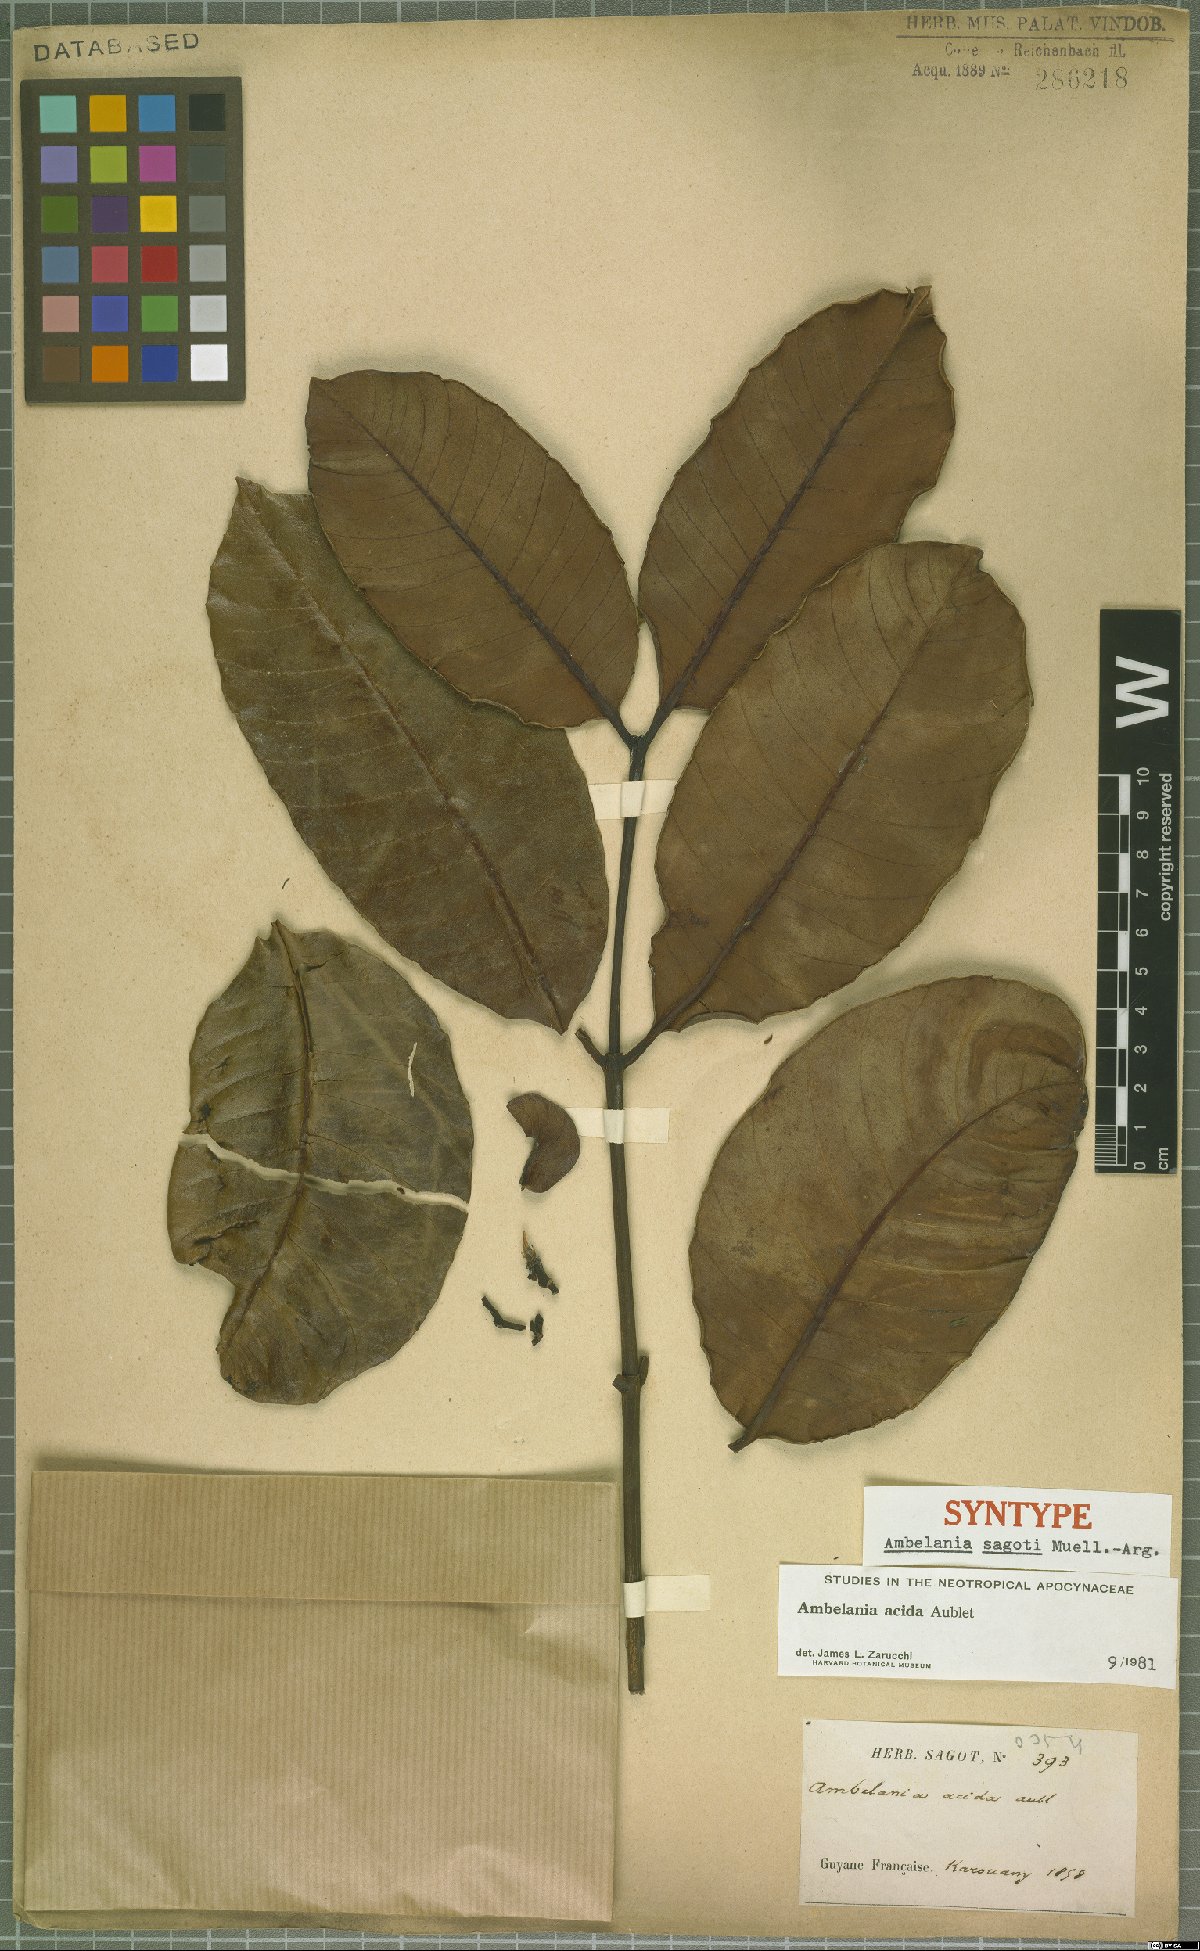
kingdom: Plantae
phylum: Tracheophyta
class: Magnoliopsida
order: Gentianales
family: Apocynaceae
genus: Ambelania
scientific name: Ambelania acida
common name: Bagasse
